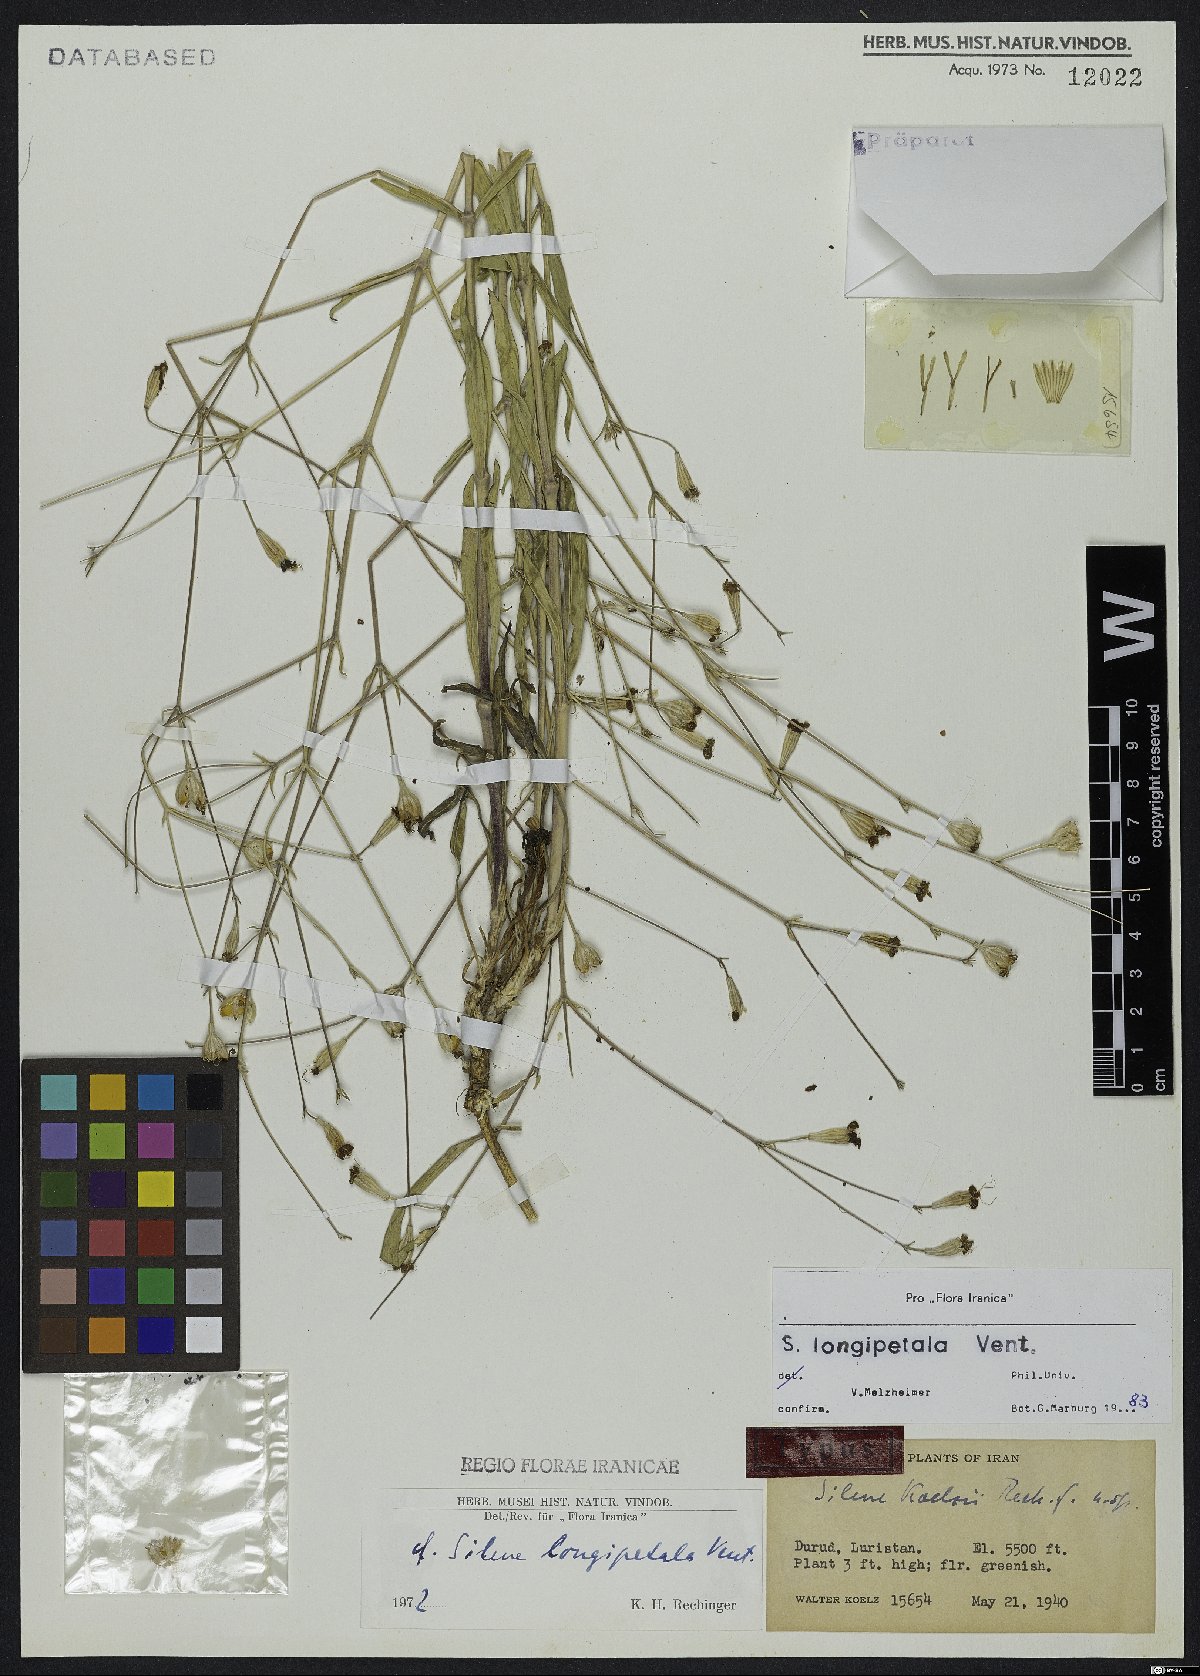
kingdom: Plantae
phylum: Tracheophyta
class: Magnoliopsida
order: Caryophyllales
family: Caryophyllaceae
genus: Silene
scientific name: Silene longipetala
